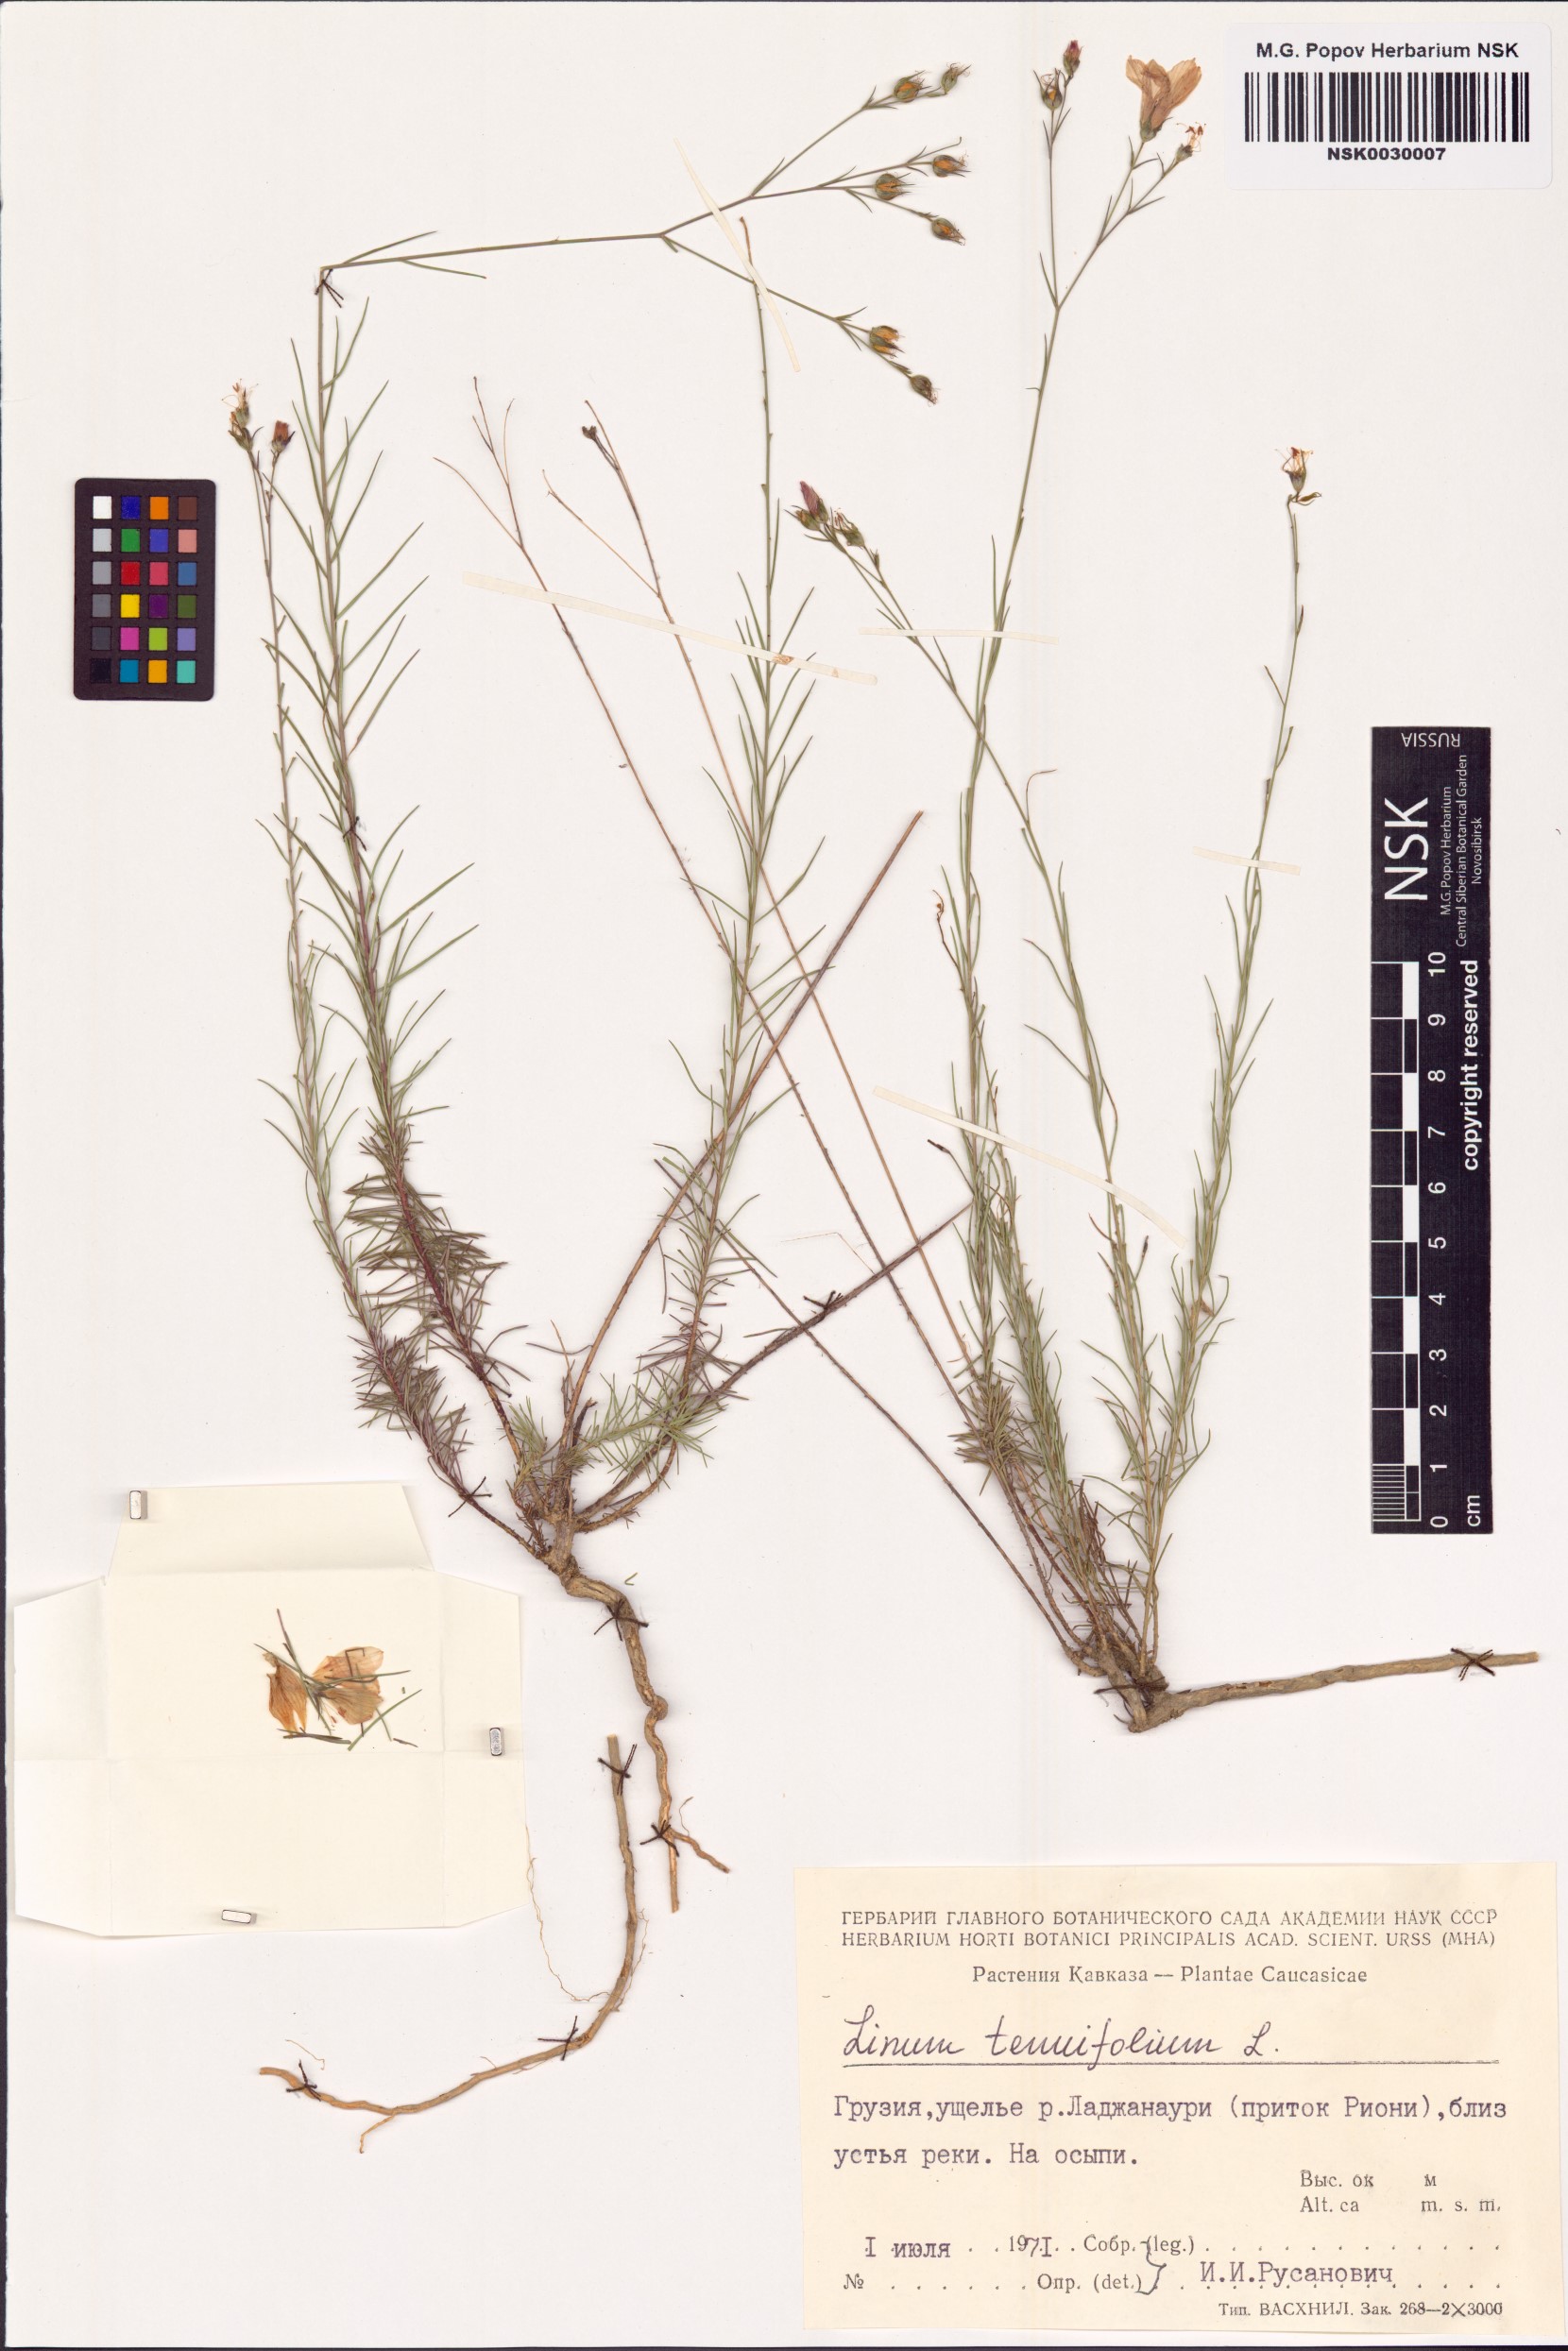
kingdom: Plantae
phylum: Tracheophyta
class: Magnoliopsida
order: Malpighiales
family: Linaceae
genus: Linum
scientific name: Linum tenuifolium
